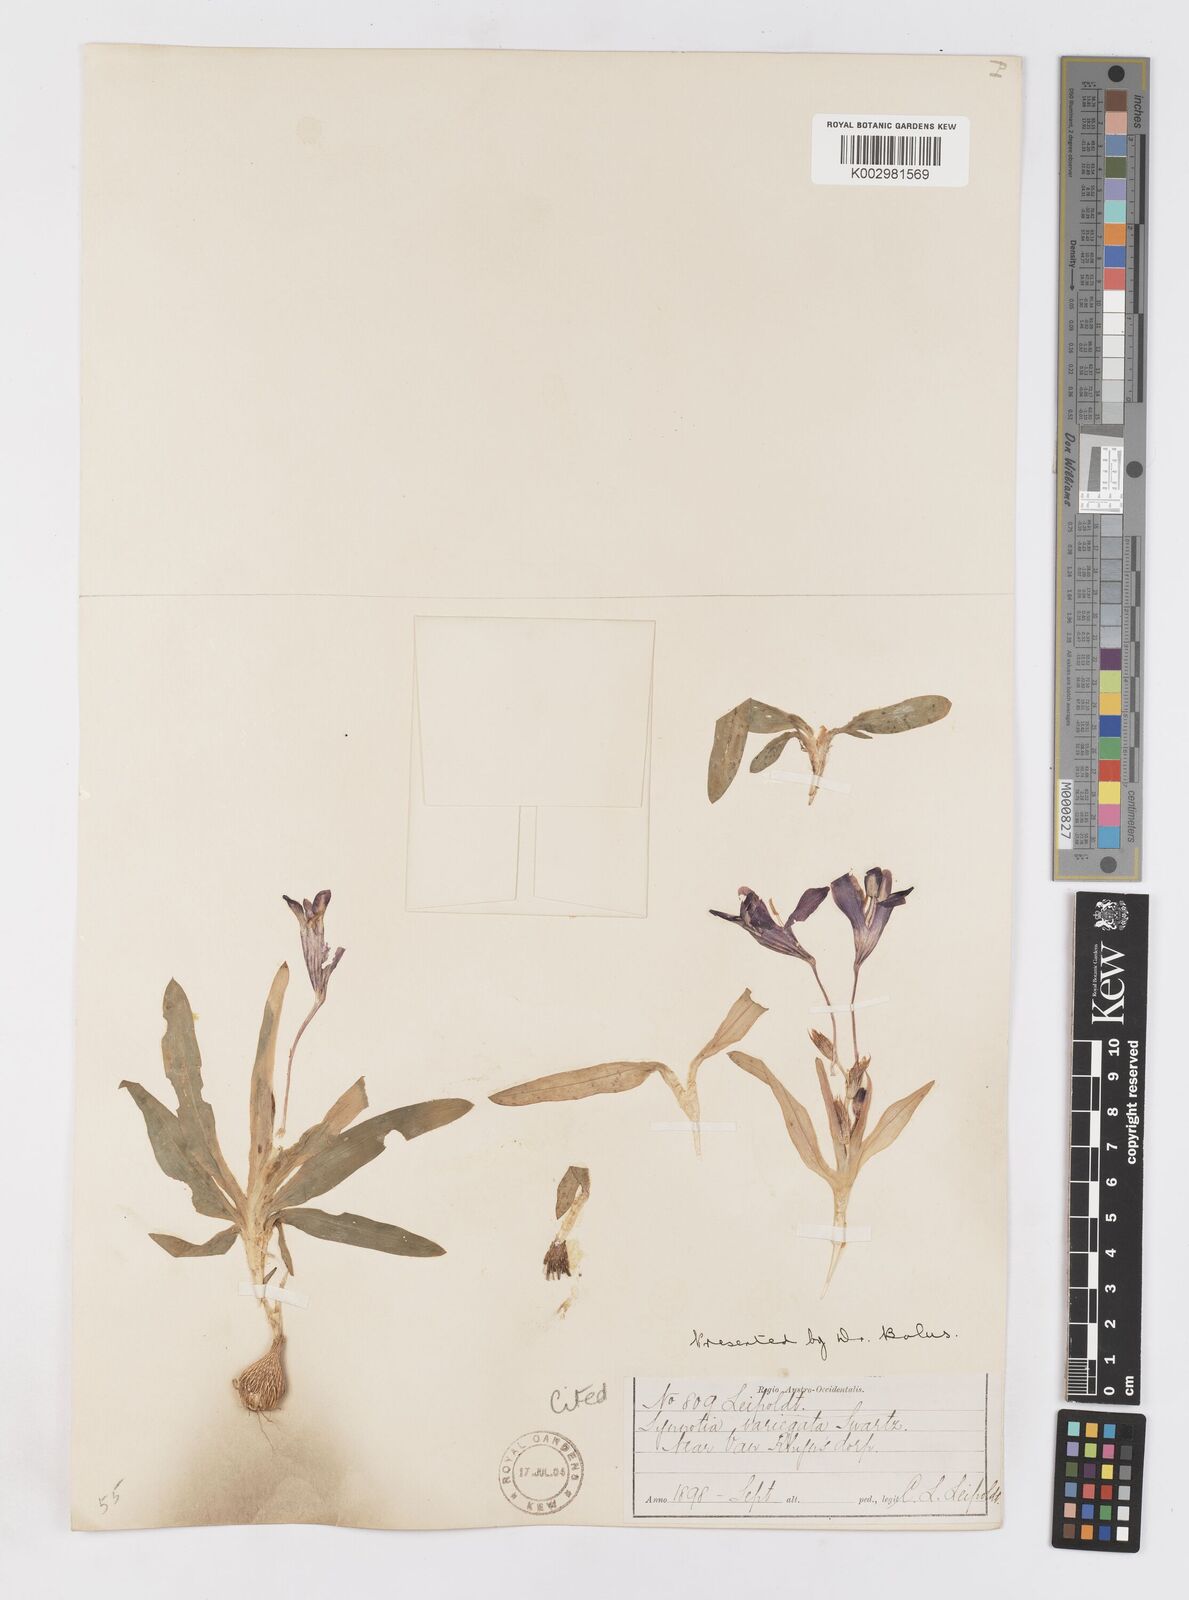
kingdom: Plantae
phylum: Tracheophyta
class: Liliopsida
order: Asparagales
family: Iridaceae
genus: Sparaxis
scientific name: Sparaxis variegata
